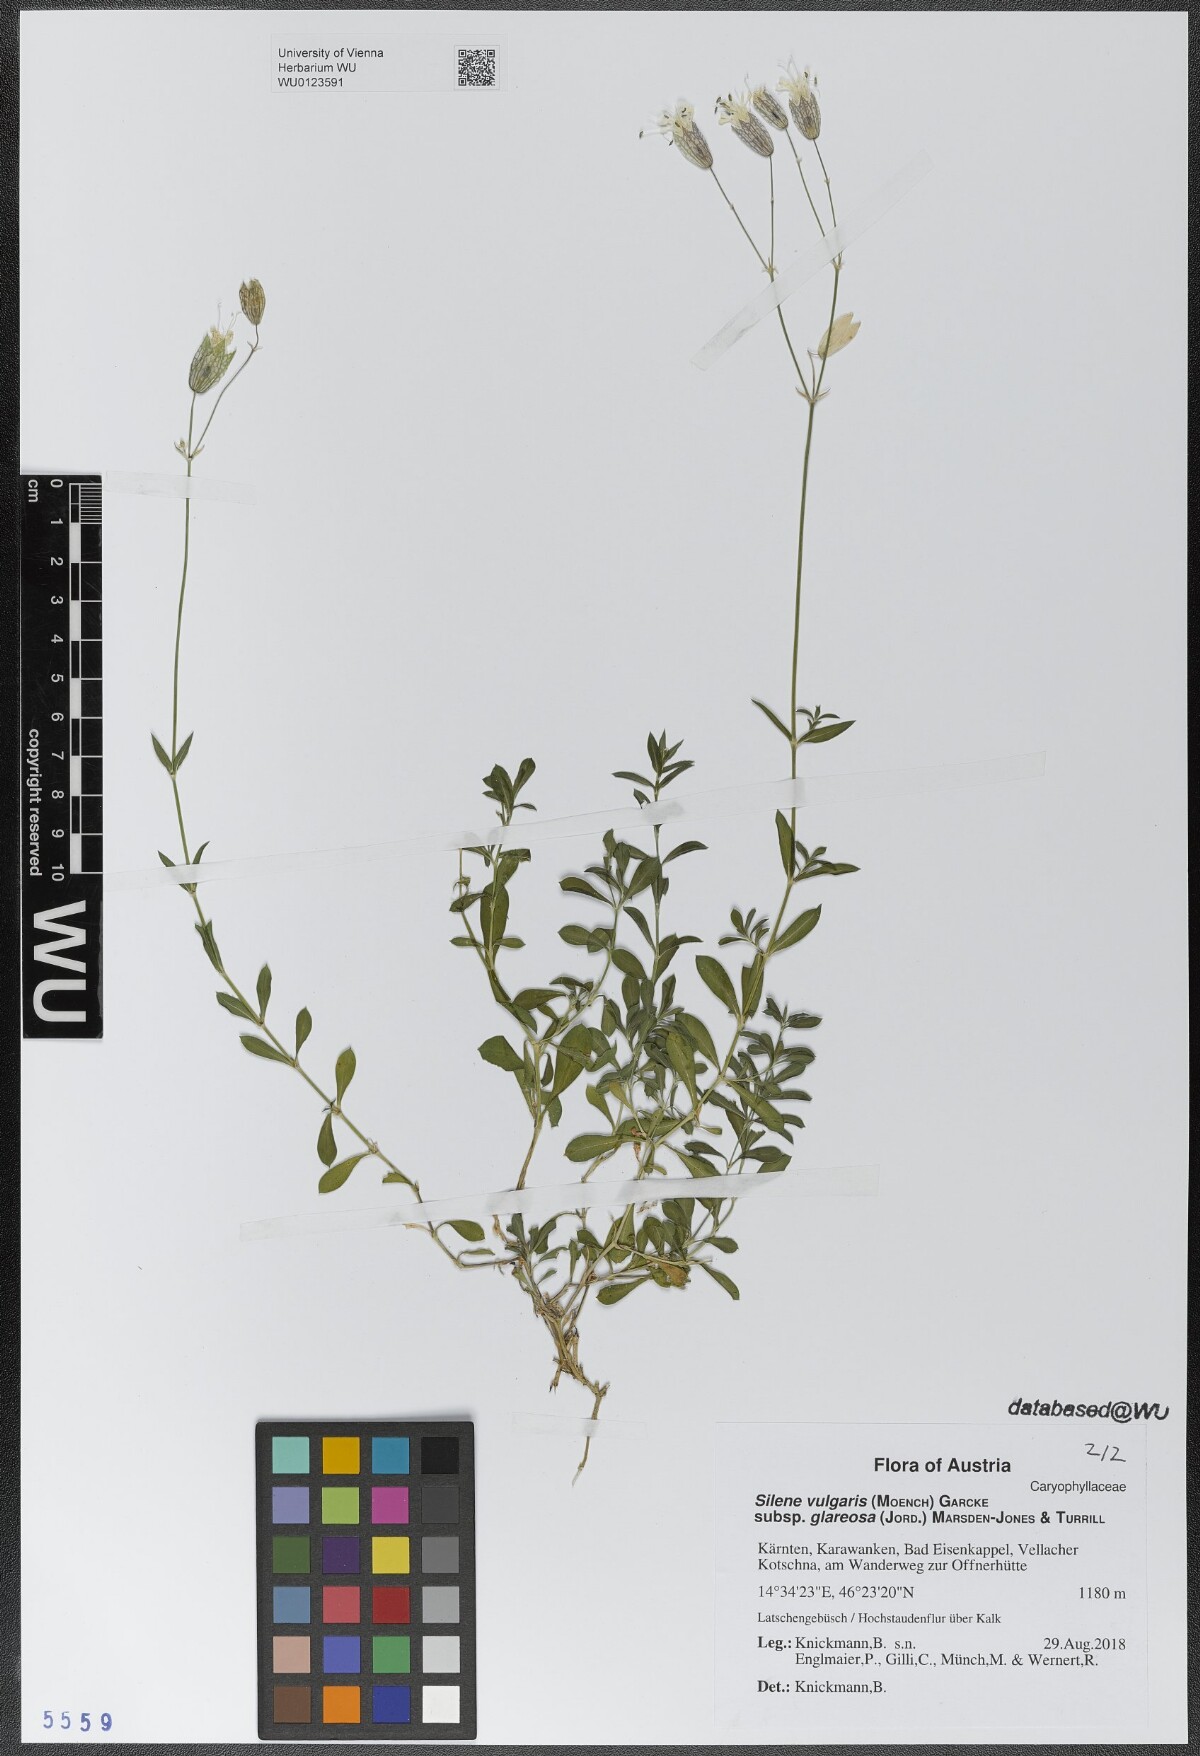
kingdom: Plantae
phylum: Tracheophyta
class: Magnoliopsida
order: Caryophyllales
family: Caryophyllaceae
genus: Silene
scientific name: Silene glareosa
